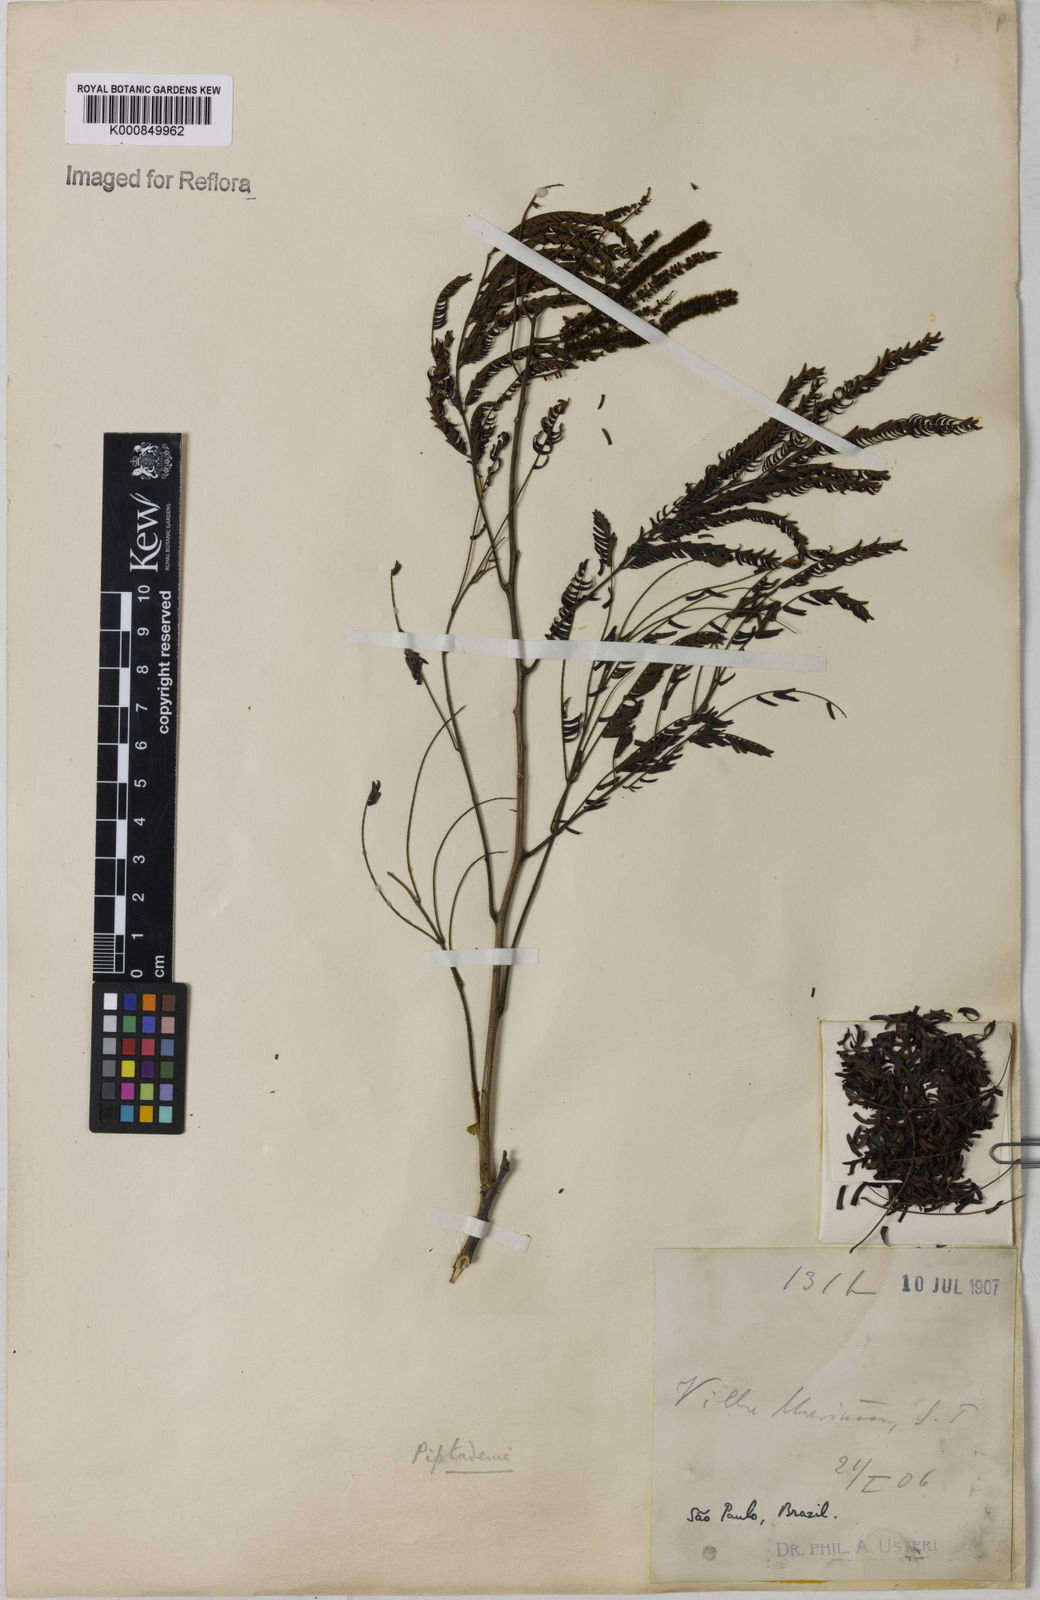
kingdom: Plantae
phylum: Tracheophyta
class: Magnoliopsida
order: Fabales
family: Fabaceae
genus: Piptadenia
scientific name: Piptadenia
